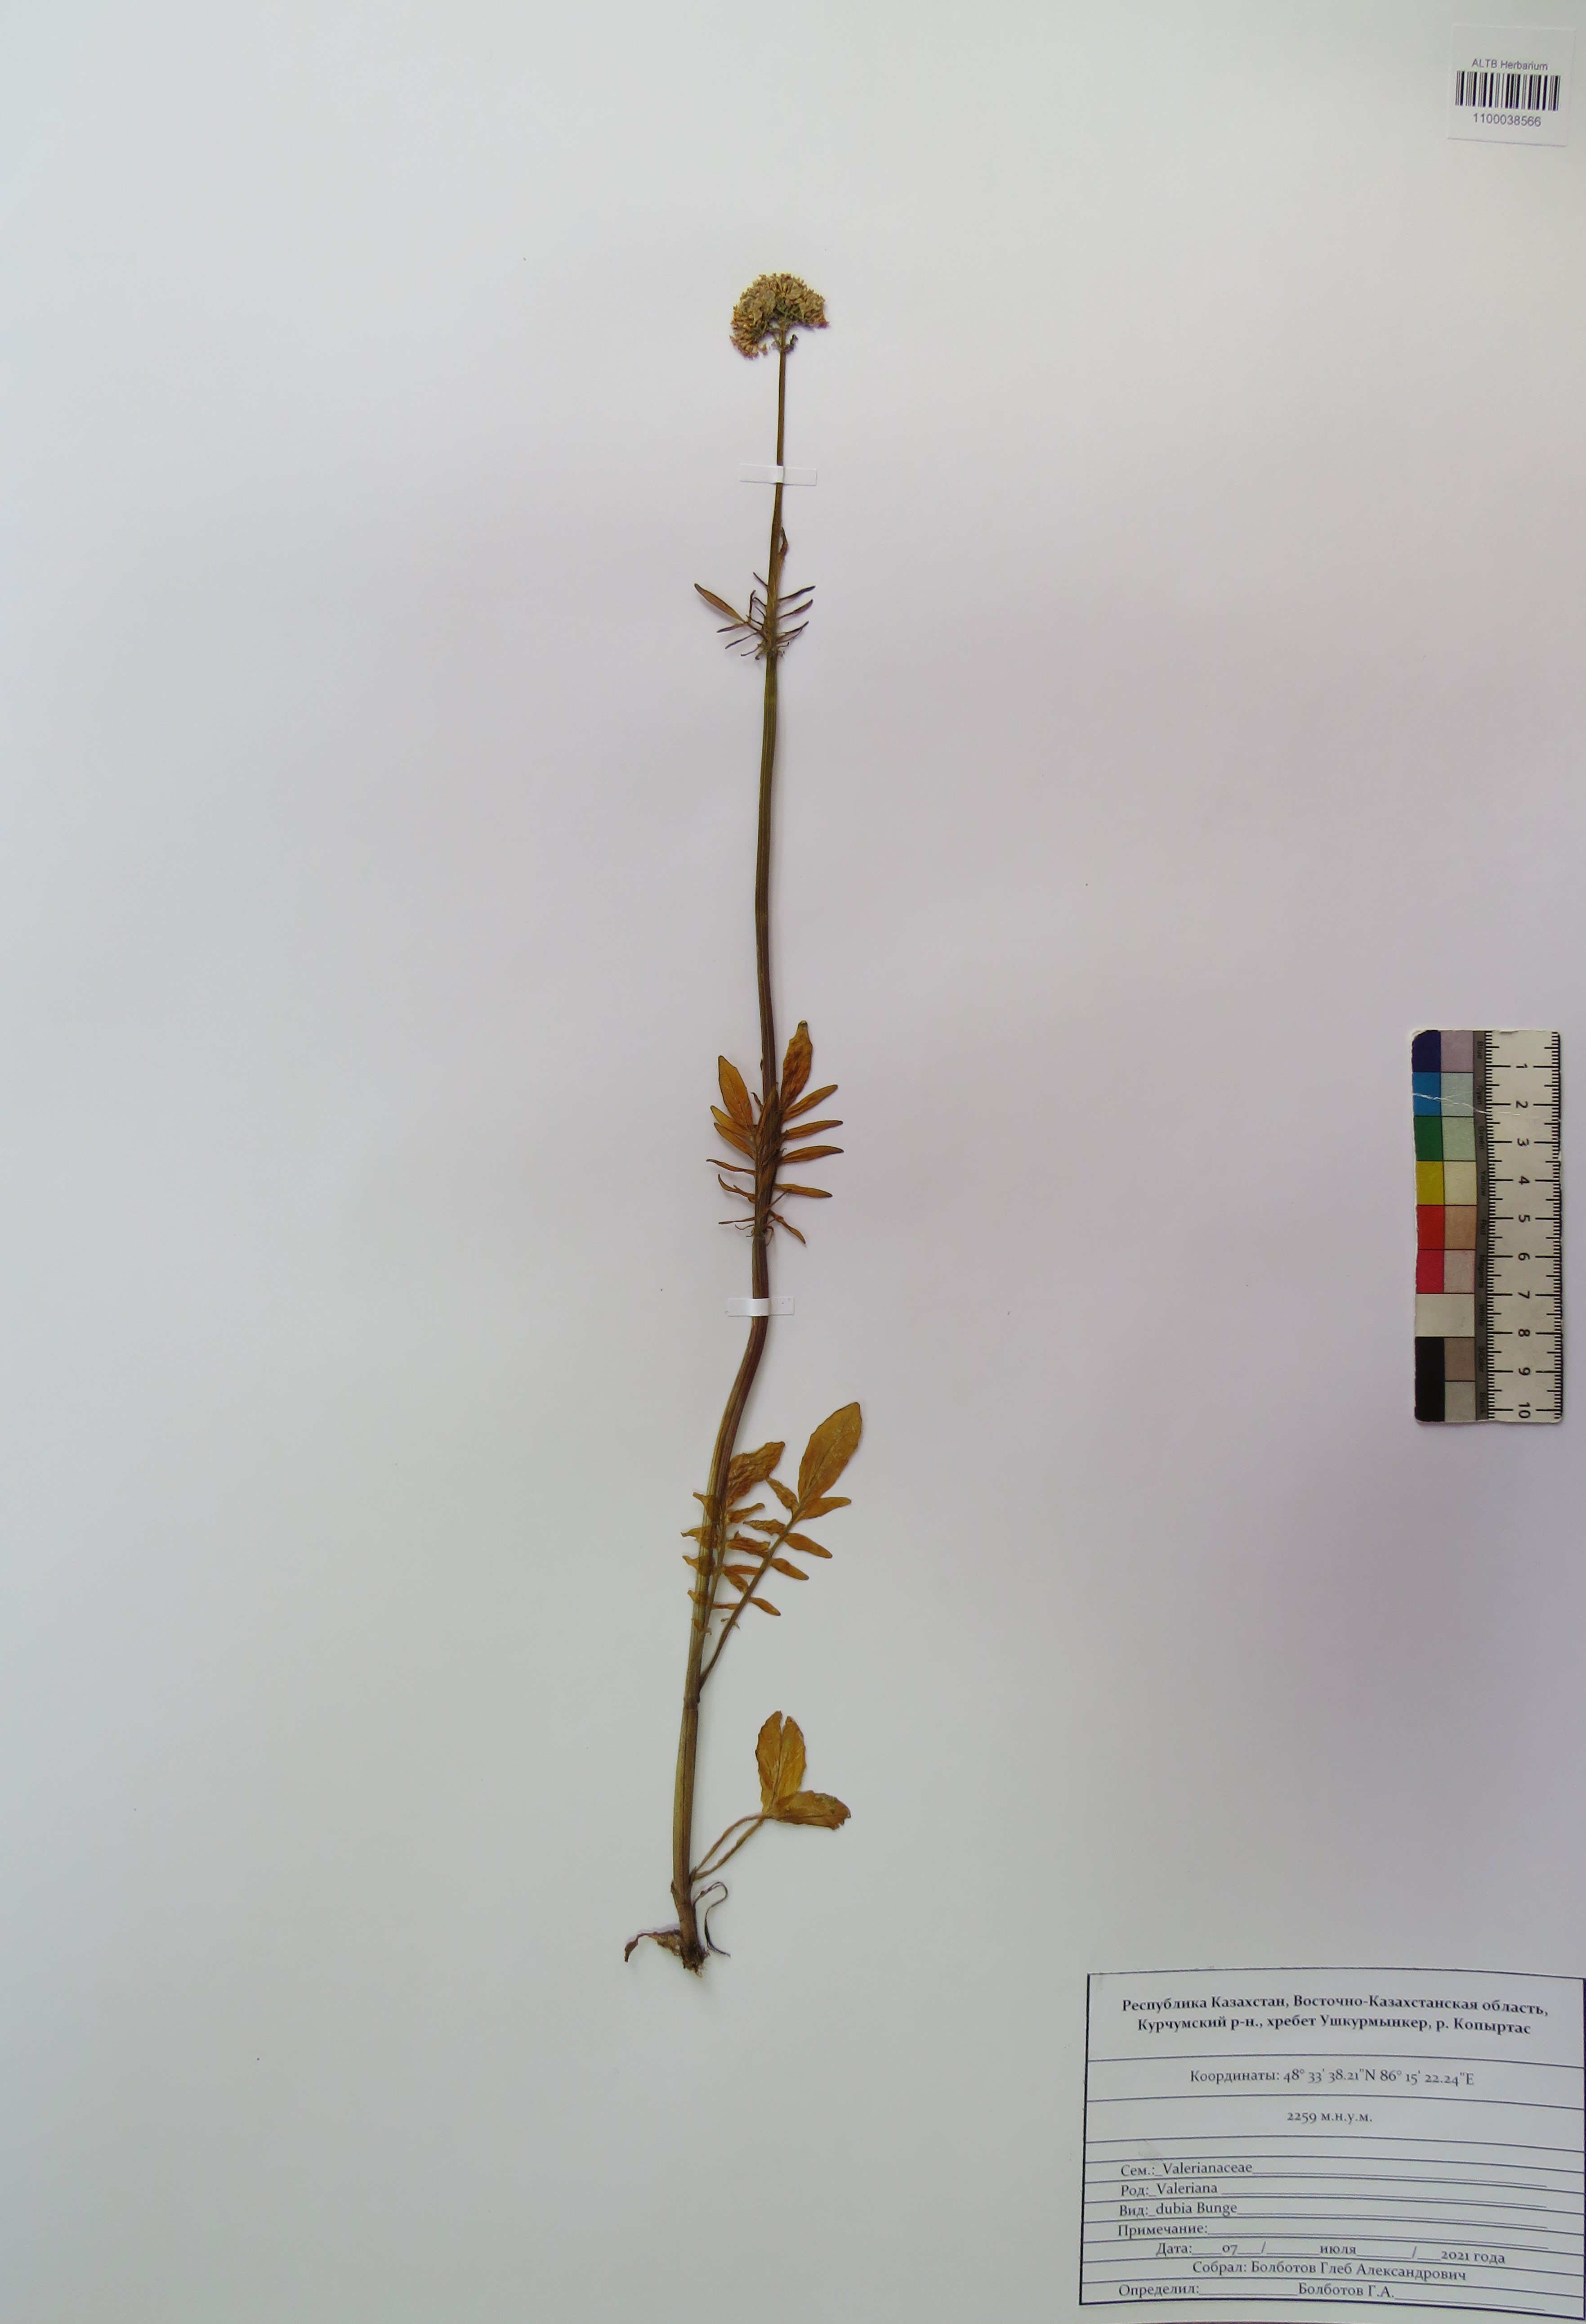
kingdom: Plantae
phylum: Tracheophyta
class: Magnoliopsida
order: Dipsacales
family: Caprifoliaceae
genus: Valeriana
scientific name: Valeriana dubia
